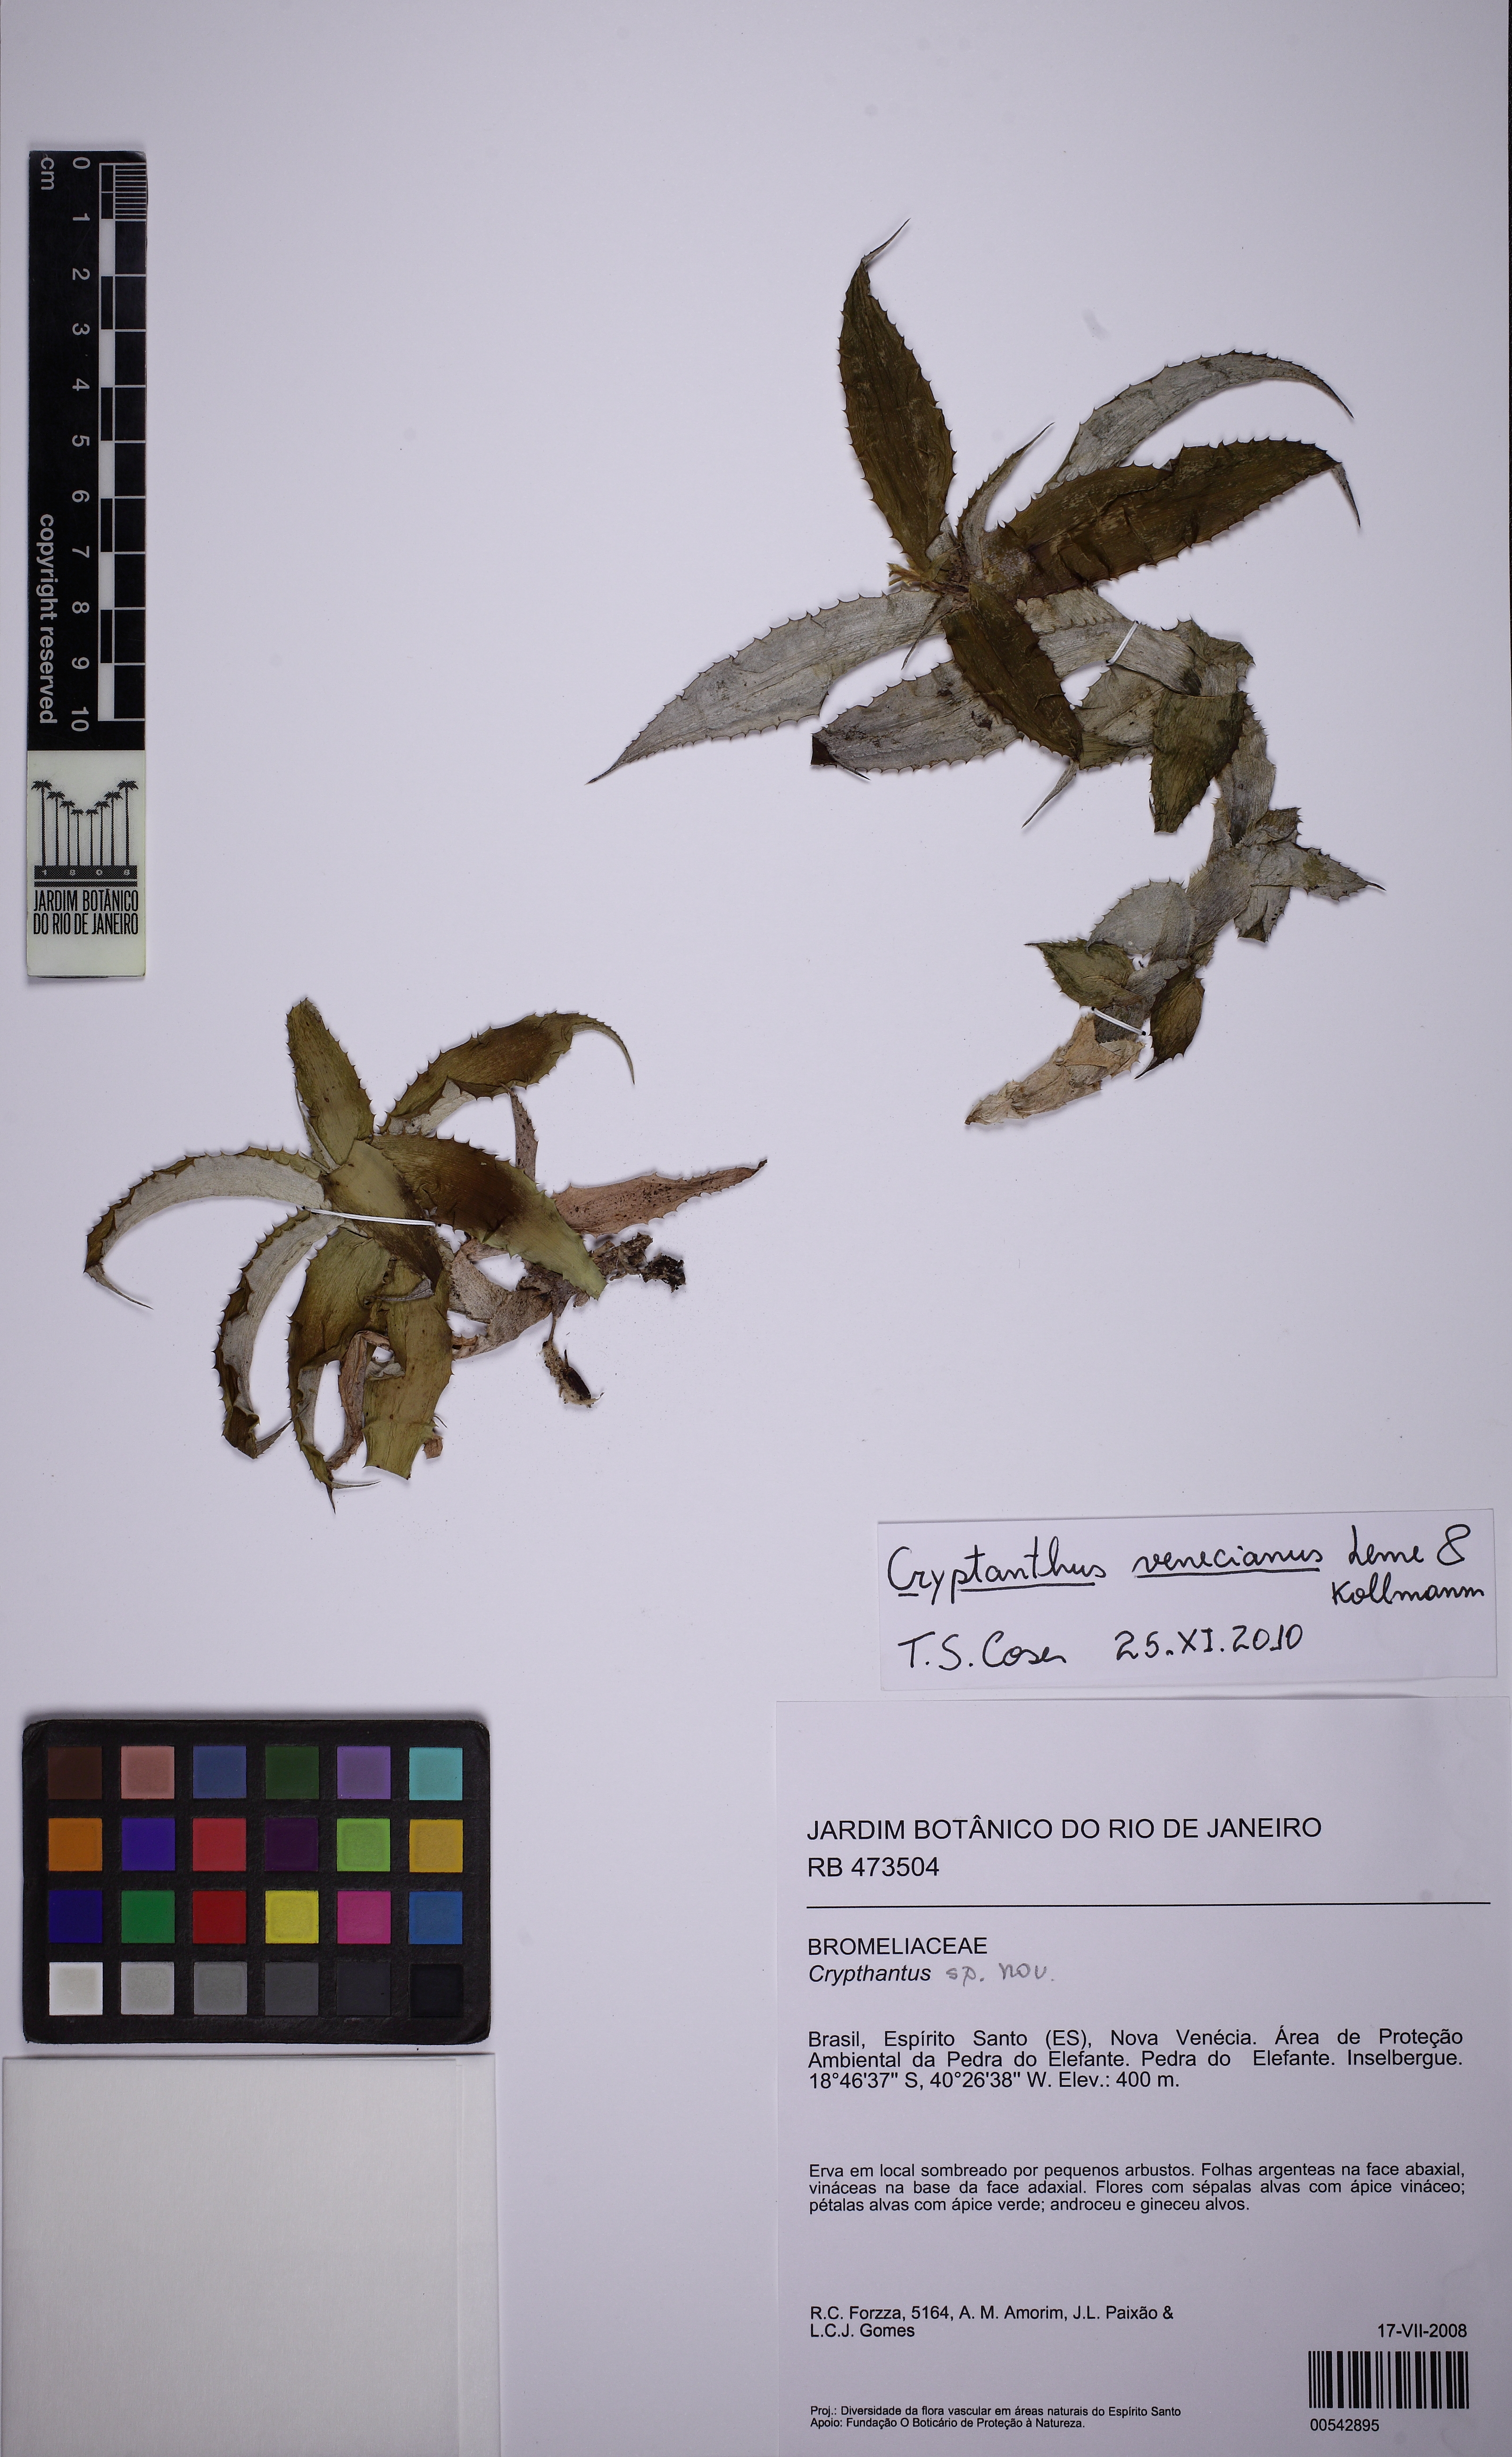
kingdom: Plantae
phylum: Tracheophyta
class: Liliopsida
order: Poales
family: Bromeliaceae
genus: Cryptanthus
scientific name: Cryptanthus venecianus
